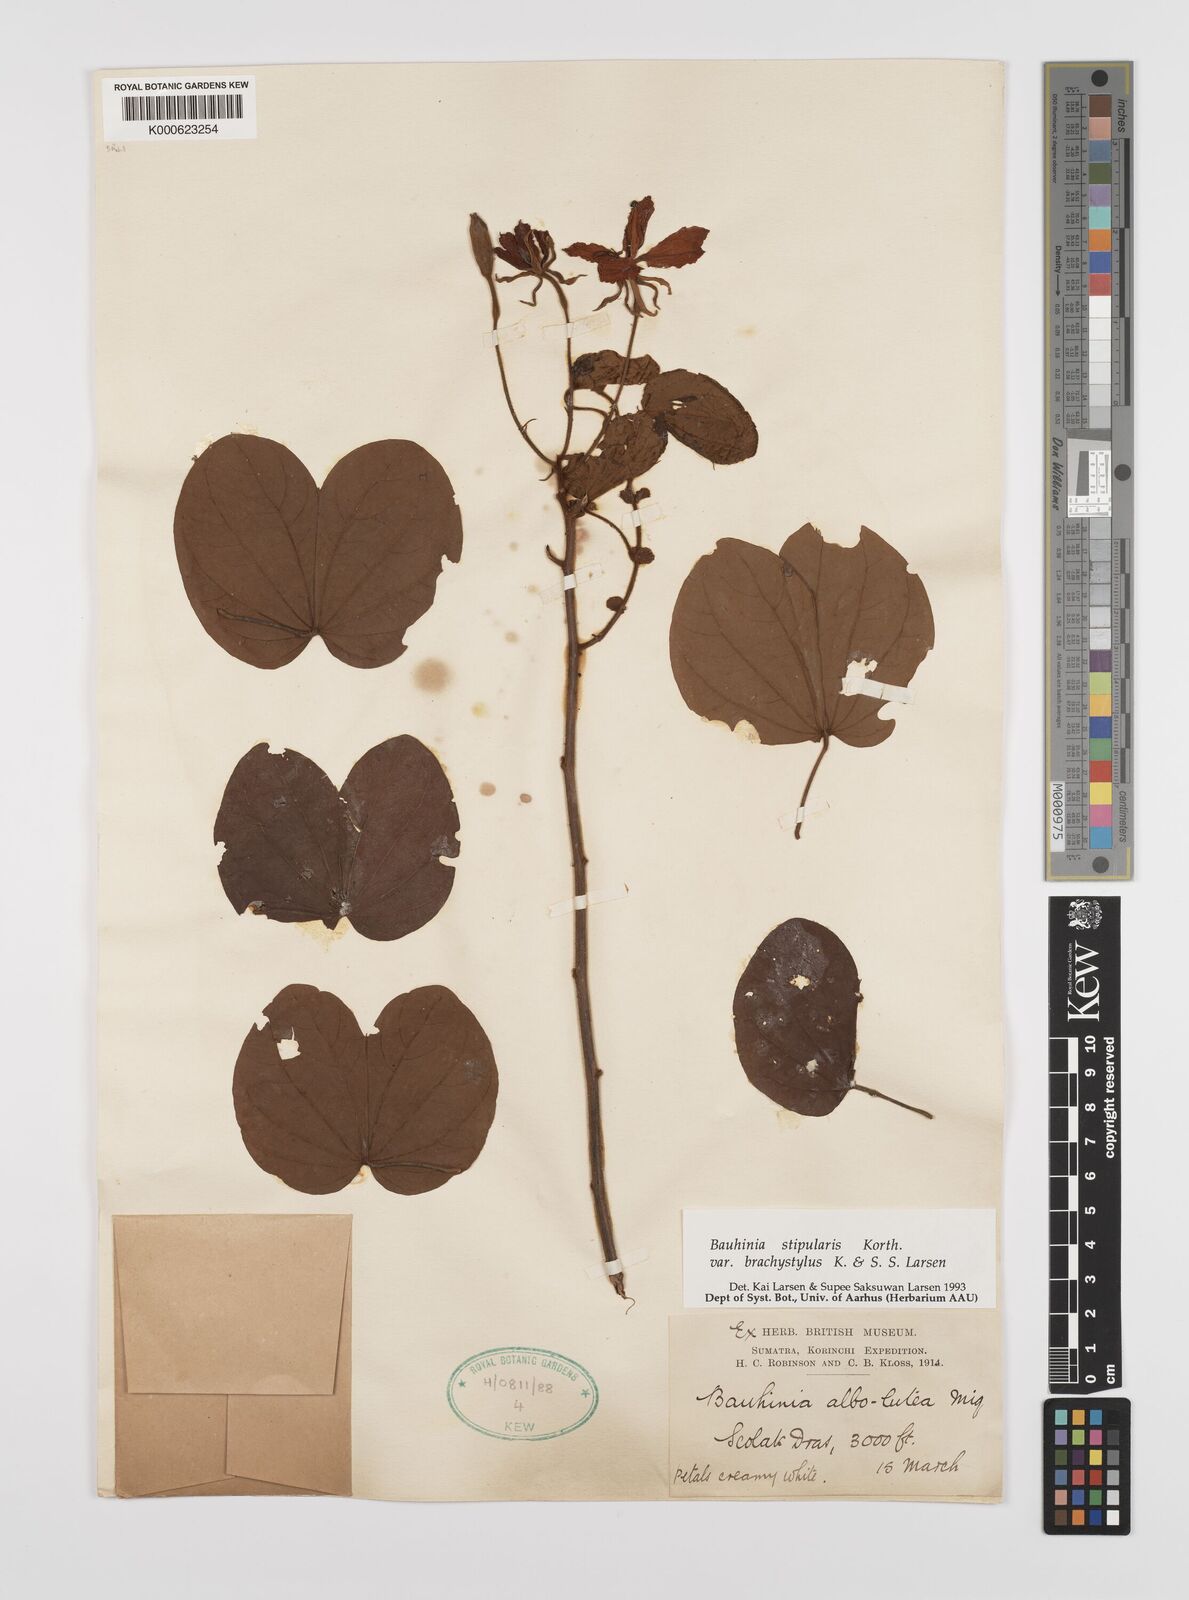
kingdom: Plantae
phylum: Tracheophyta
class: Magnoliopsida
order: Fabales
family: Fabaceae
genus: Bauhinia
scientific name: Bauhinia
